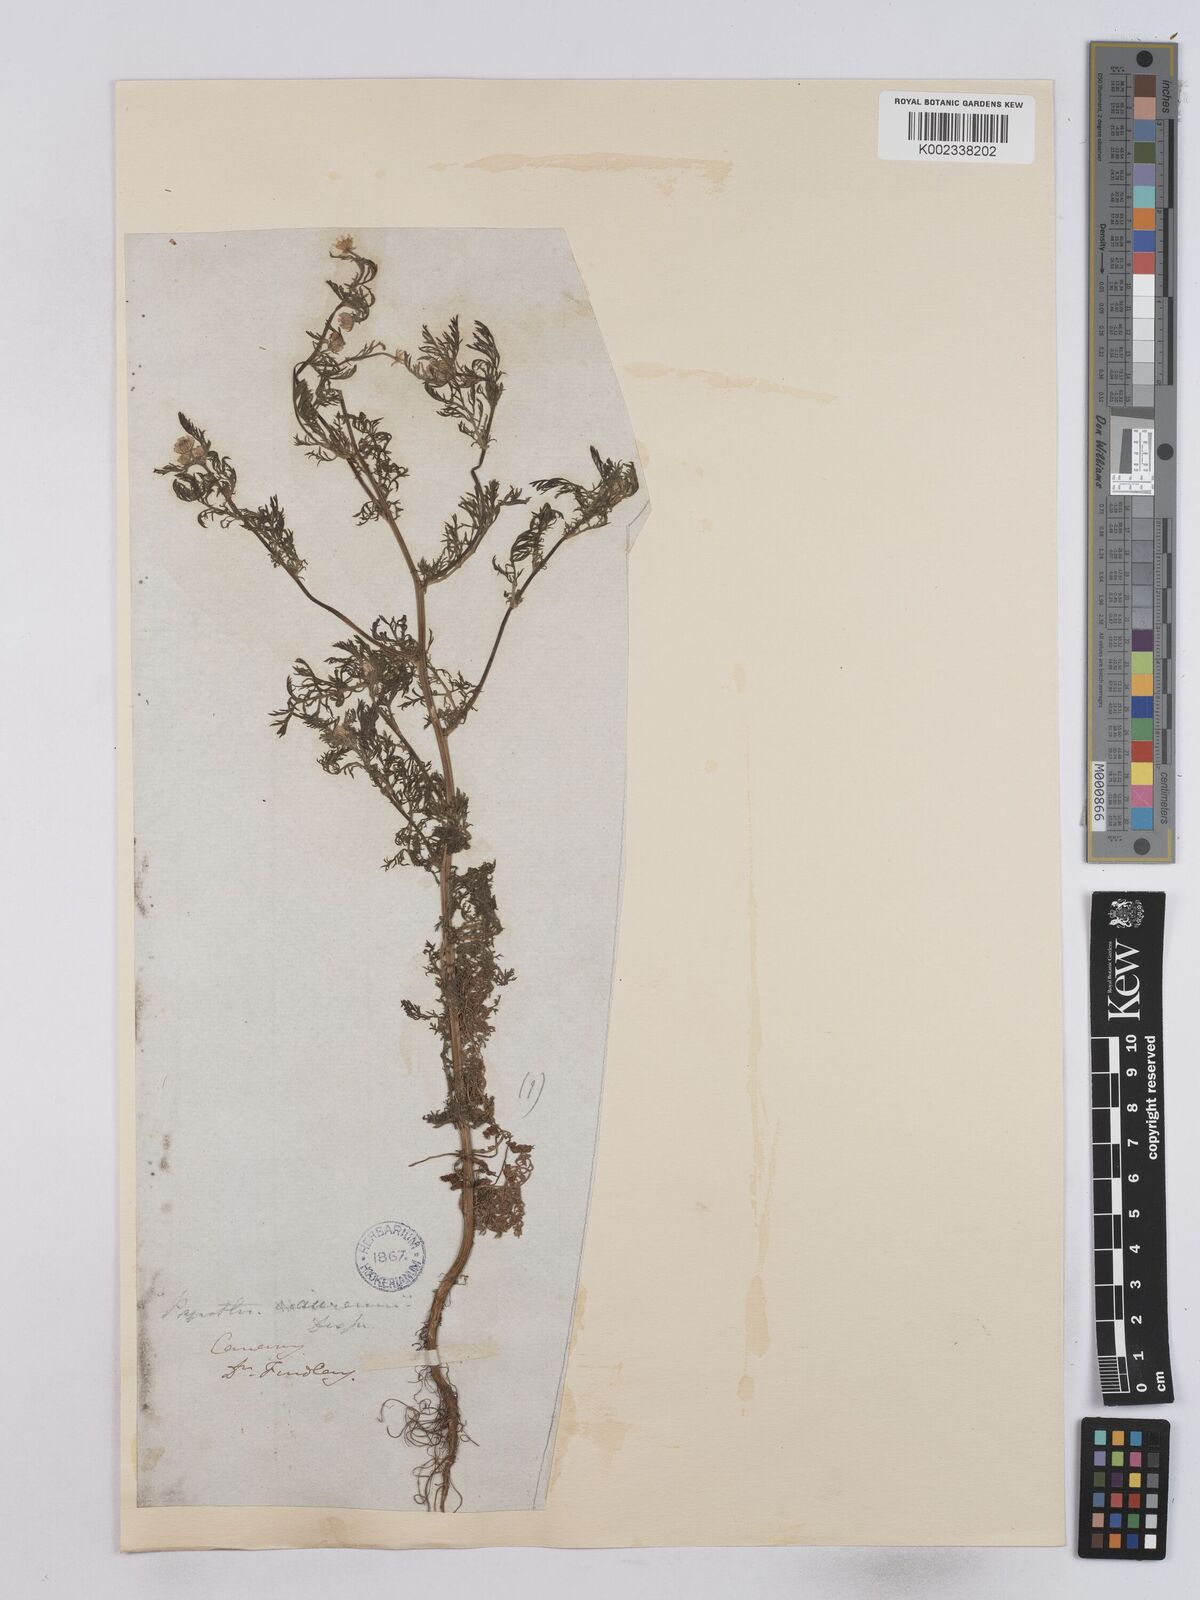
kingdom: Plantae
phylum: Tracheophyta
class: Magnoliopsida
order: Asterales
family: Asteraceae
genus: Matricaria
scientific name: Matricaria aurea
